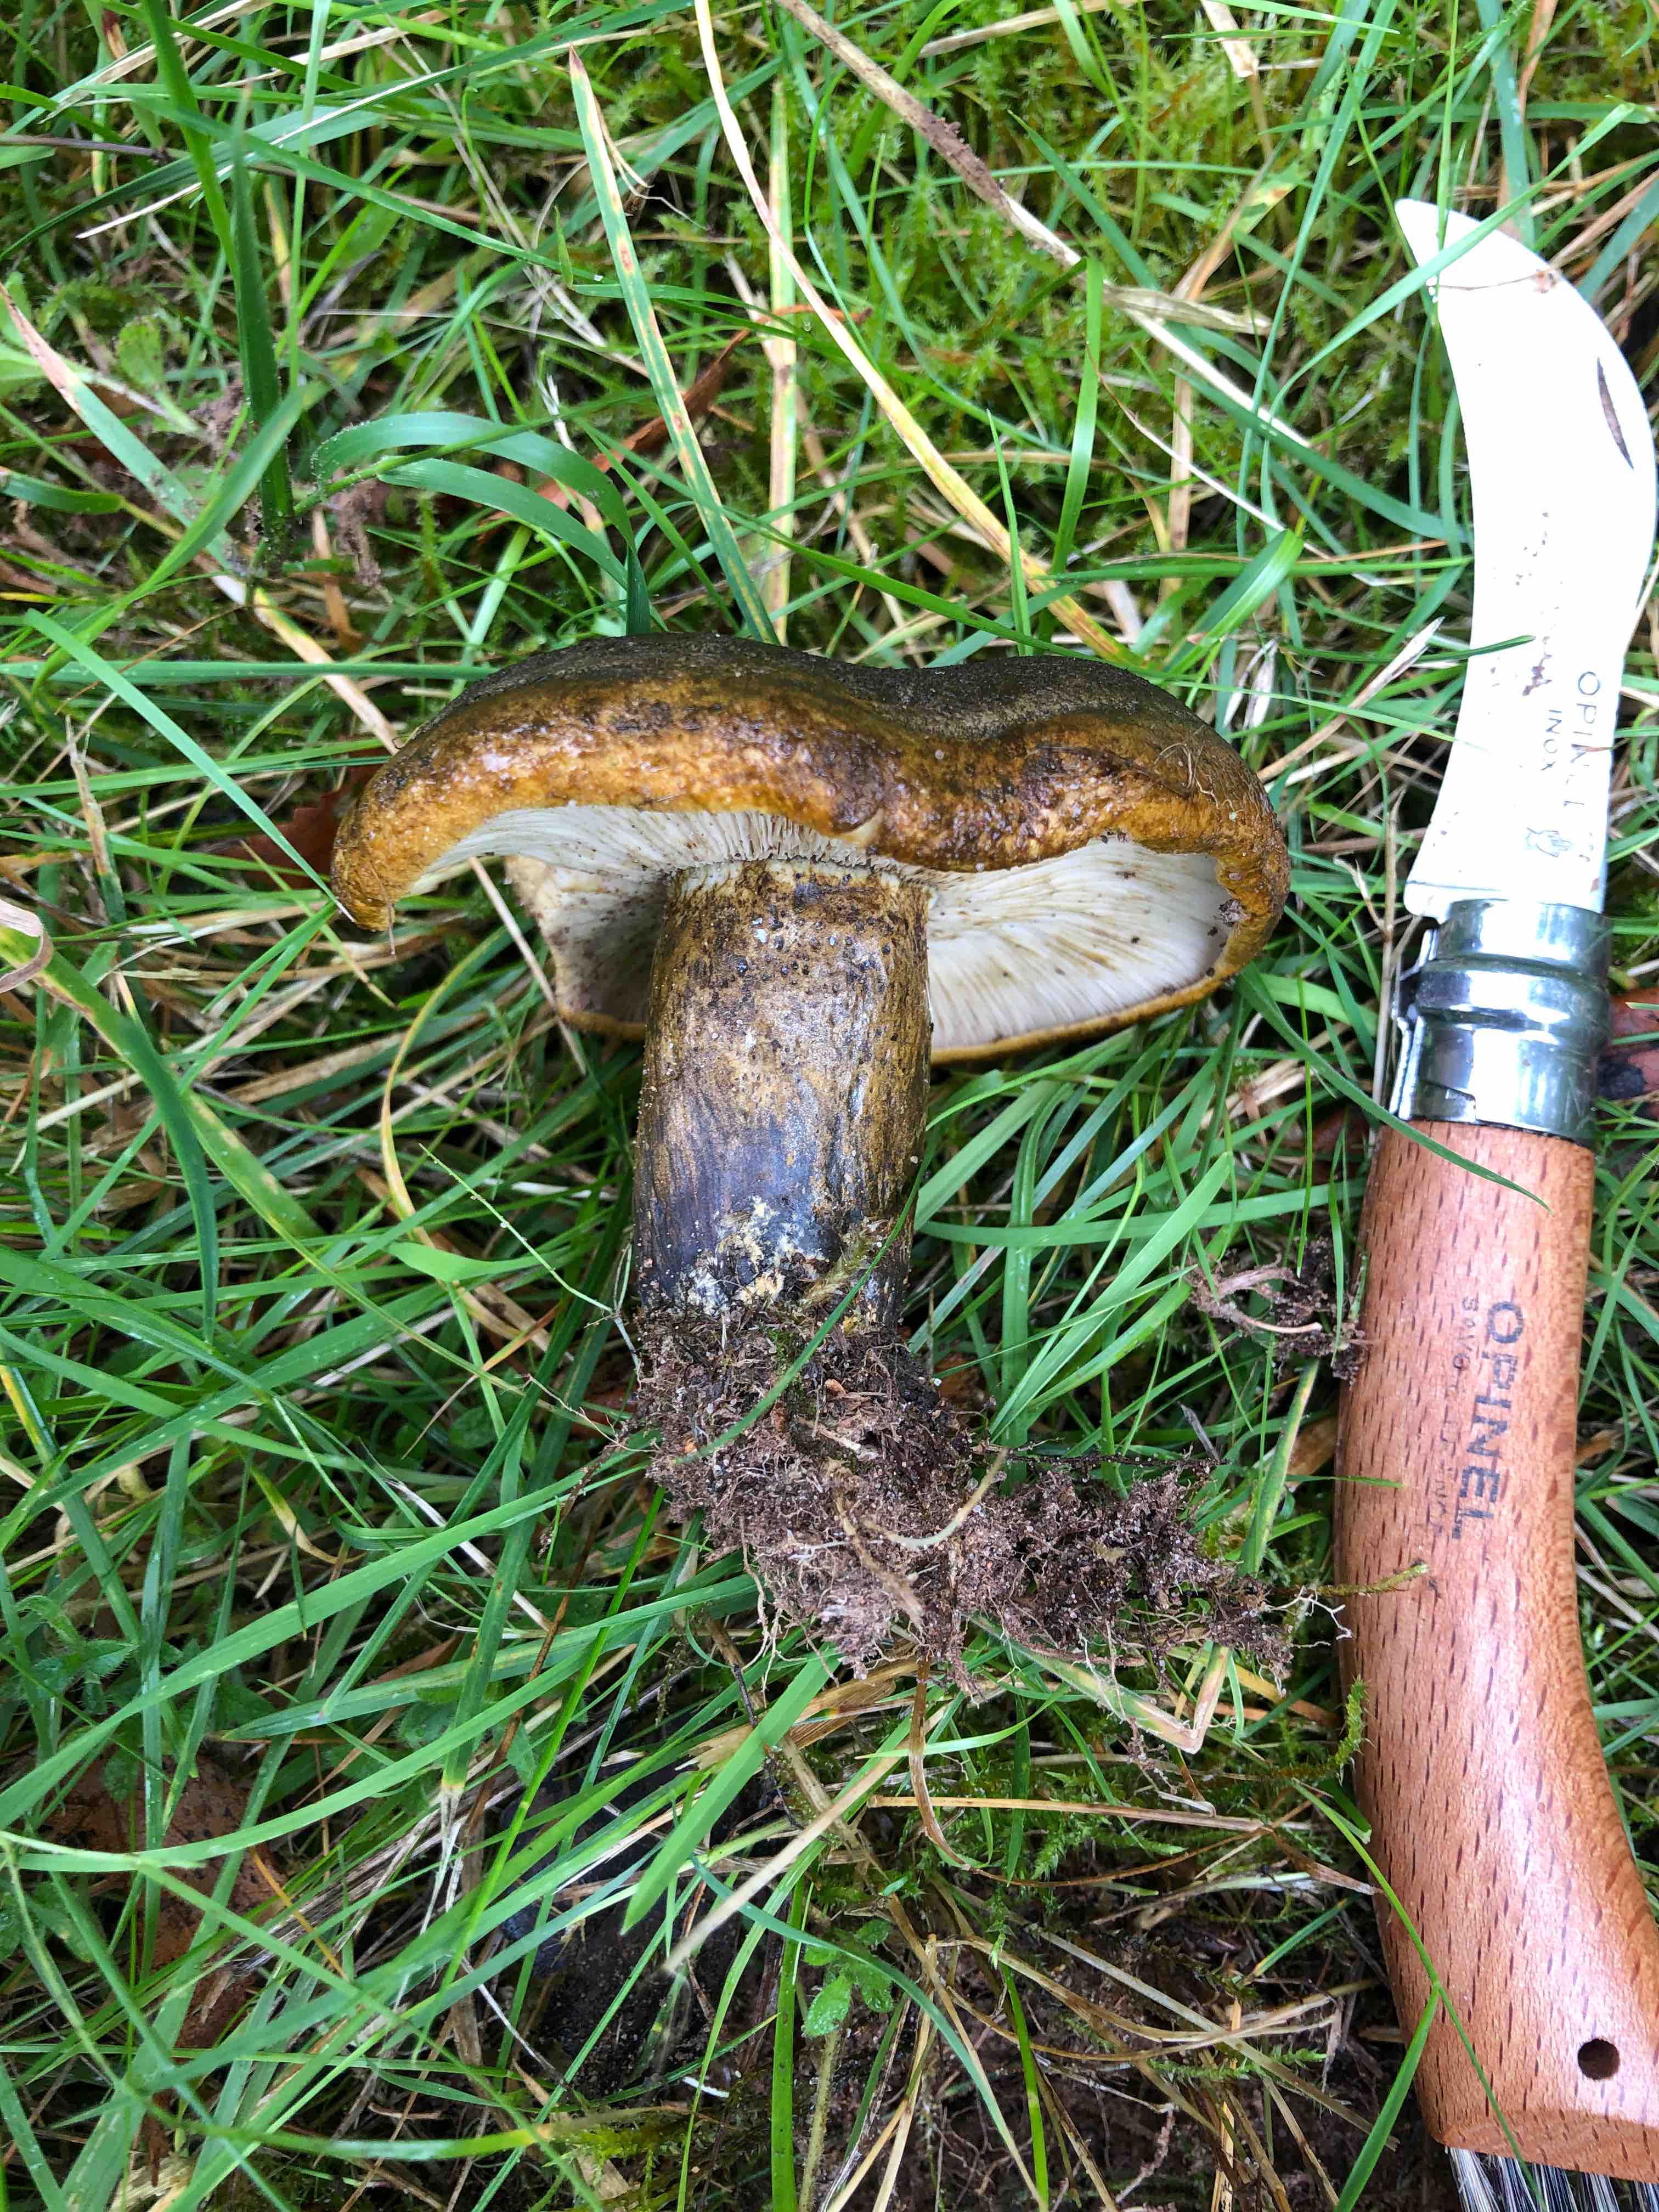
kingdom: Fungi
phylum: Basidiomycota
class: Agaricomycetes
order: Russulales
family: Russulaceae
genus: Lactarius
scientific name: Lactarius necator
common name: manddraber-mælkehat
